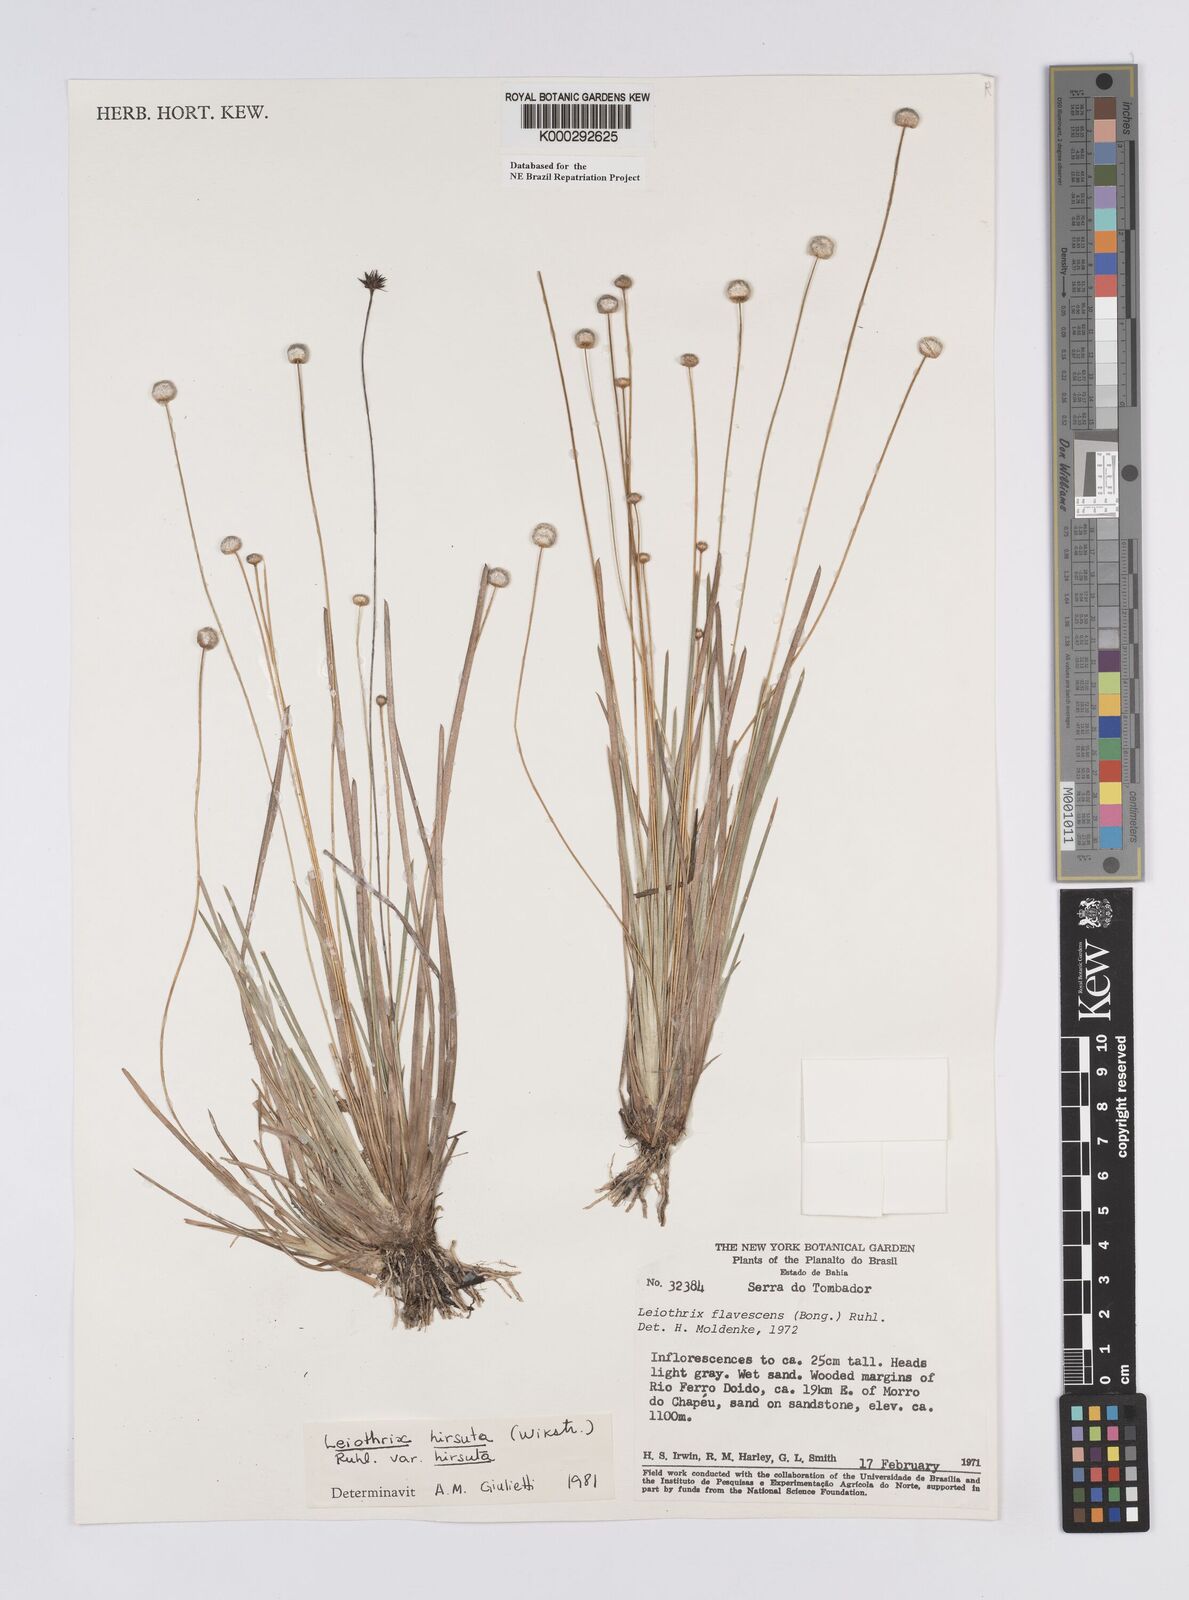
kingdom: Plantae
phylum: Tracheophyta
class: Liliopsida
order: Poales
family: Eriocaulaceae
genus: Leiothrix
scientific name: Leiothrix hirsuta
